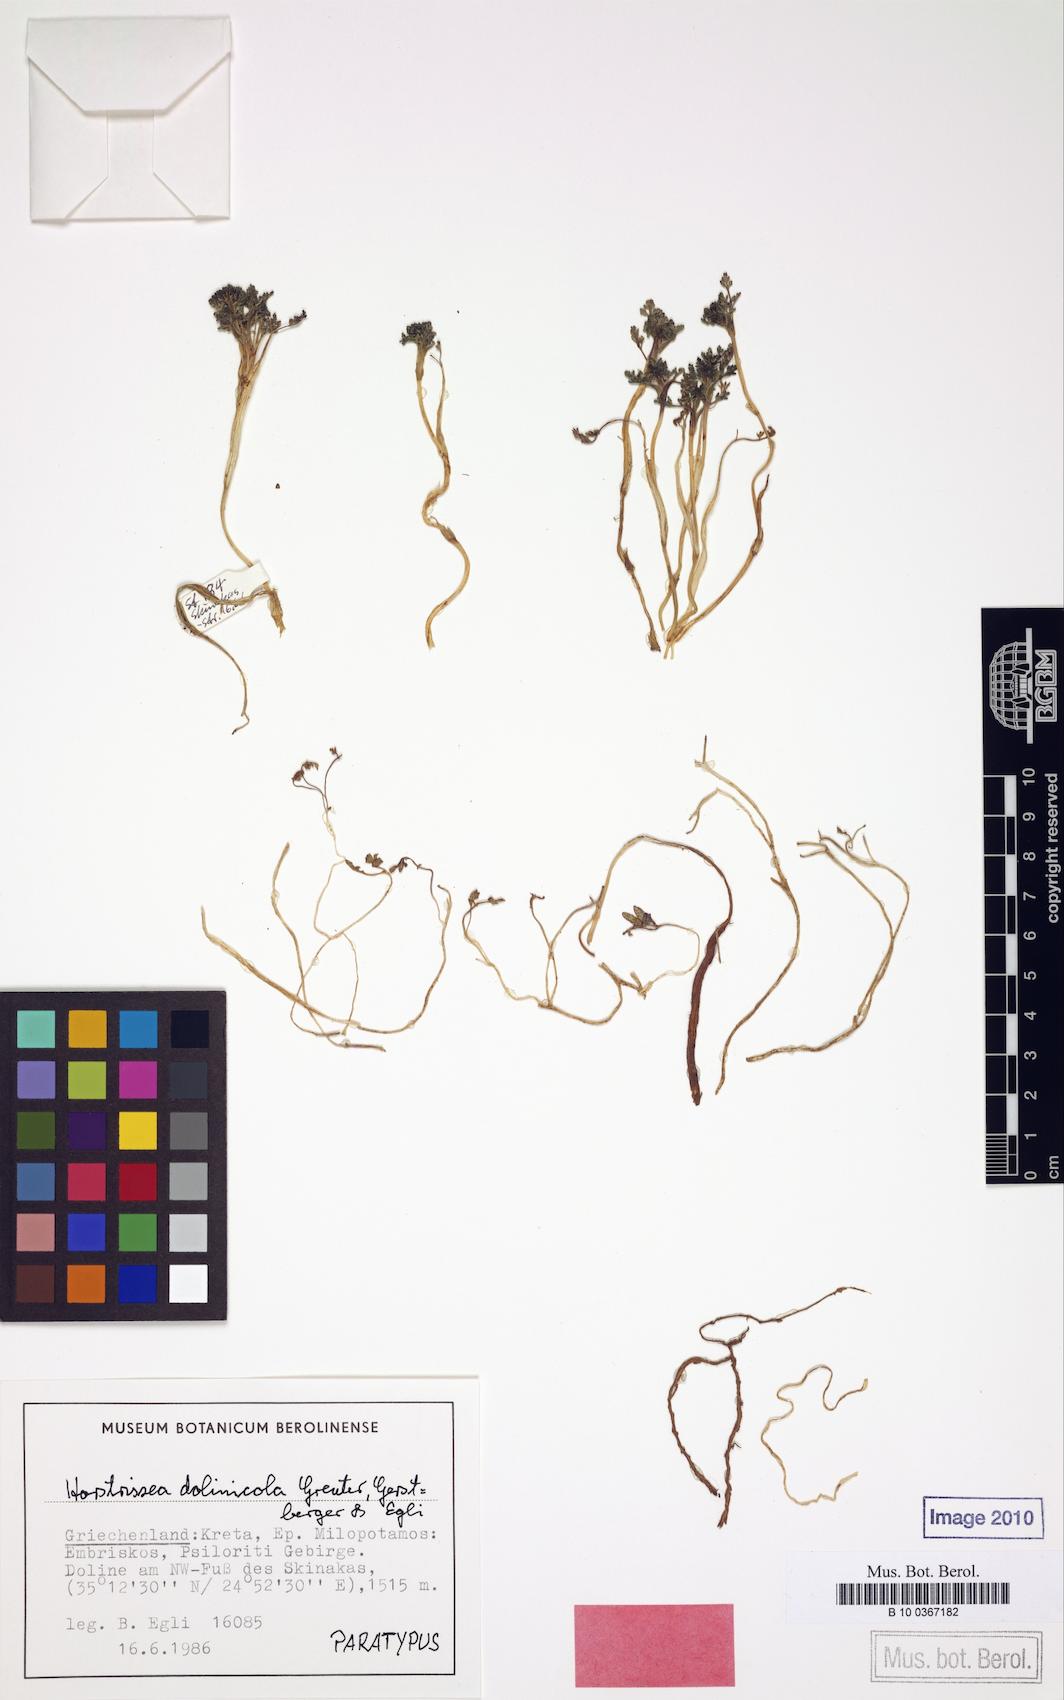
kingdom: Plantae
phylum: Tracheophyta
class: Magnoliopsida
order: Apiales
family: Apiaceae
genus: Horstrissea
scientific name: Horstrissea dolinicola
